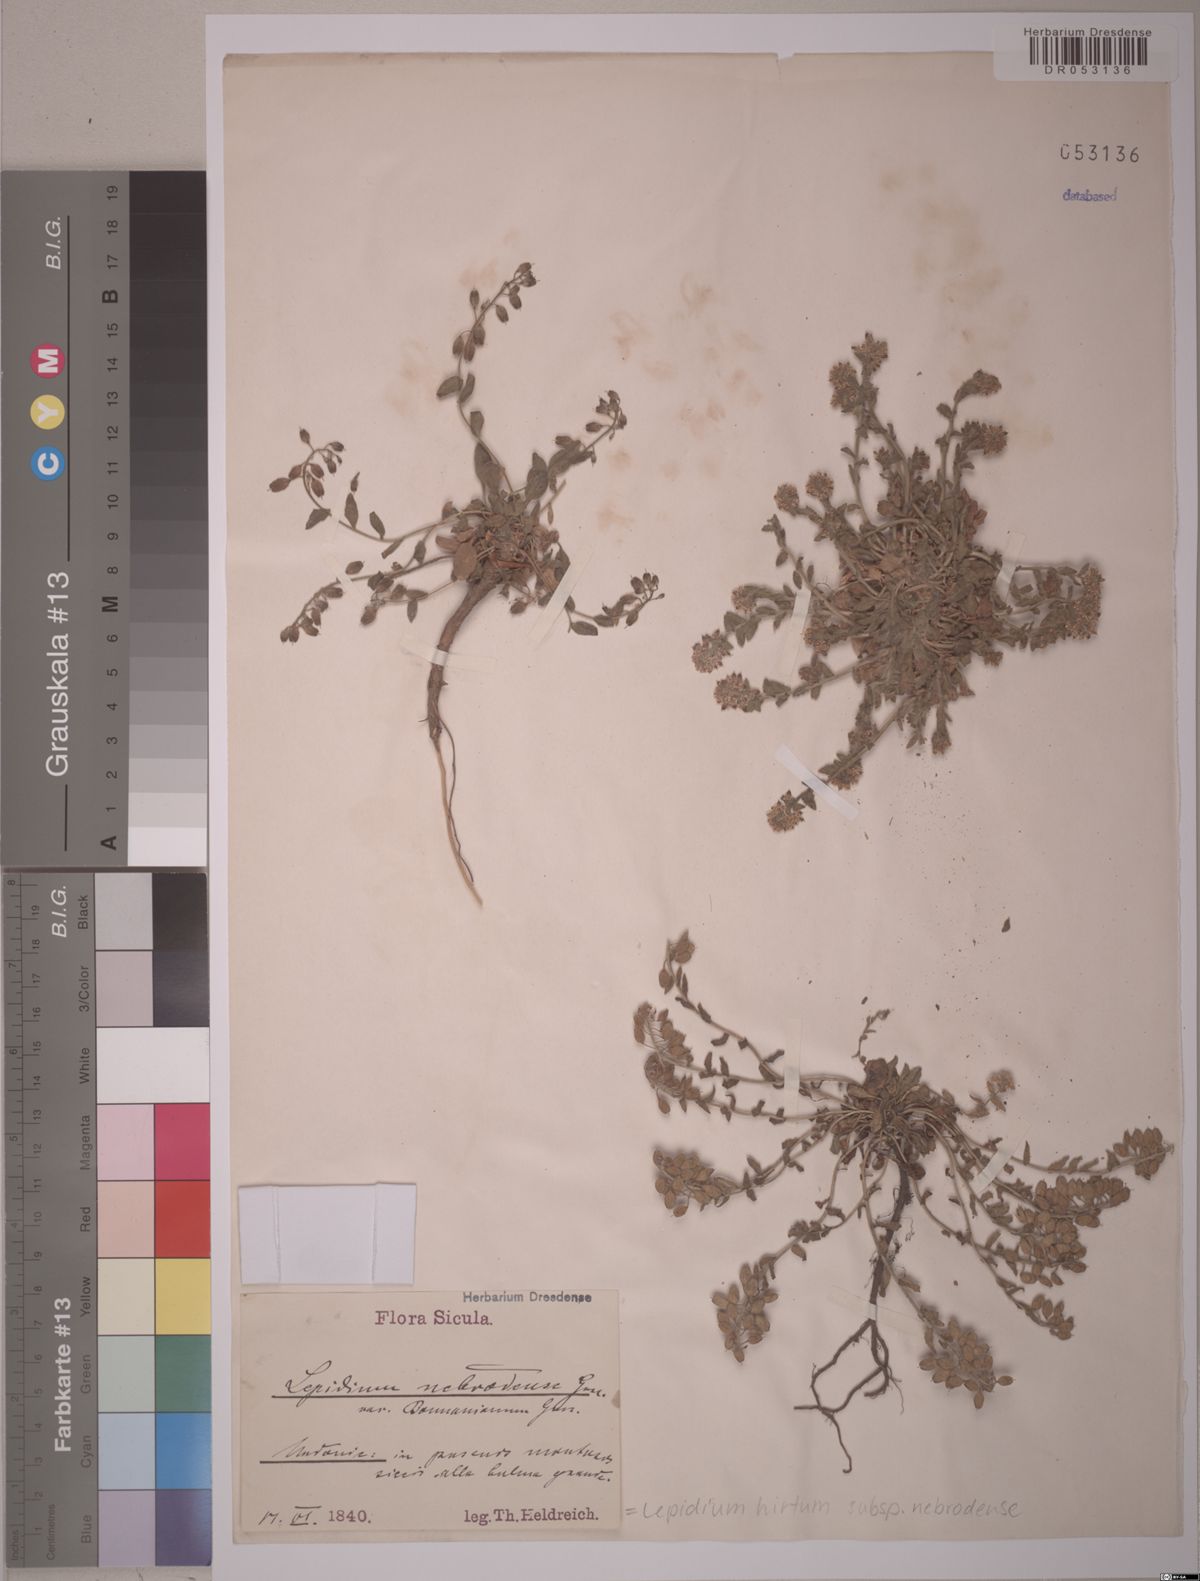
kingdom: Plantae
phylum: Tracheophyta
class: Magnoliopsida
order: Brassicales
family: Brassicaceae
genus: Lepidium
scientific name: Lepidium hirtum
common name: Mediterranean pepperweed
